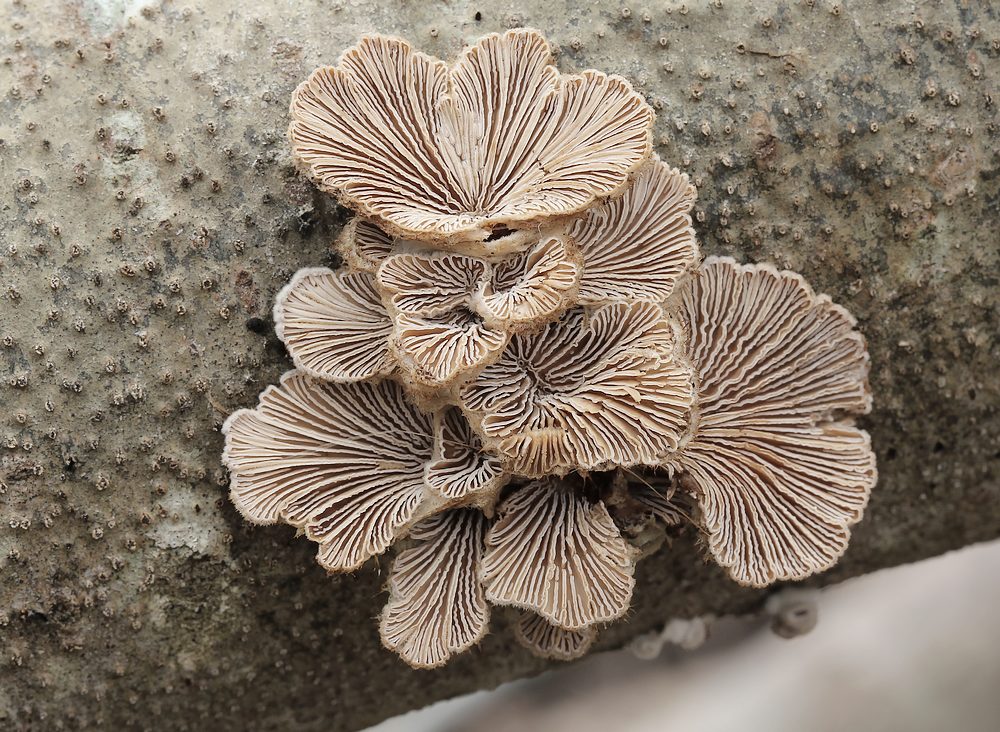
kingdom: Fungi
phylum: Basidiomycota
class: Agaricomycetes
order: Agaricales
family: Schizophyllaceae
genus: Schizophyllum
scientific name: Schizophyllum commune
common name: kløvblad
